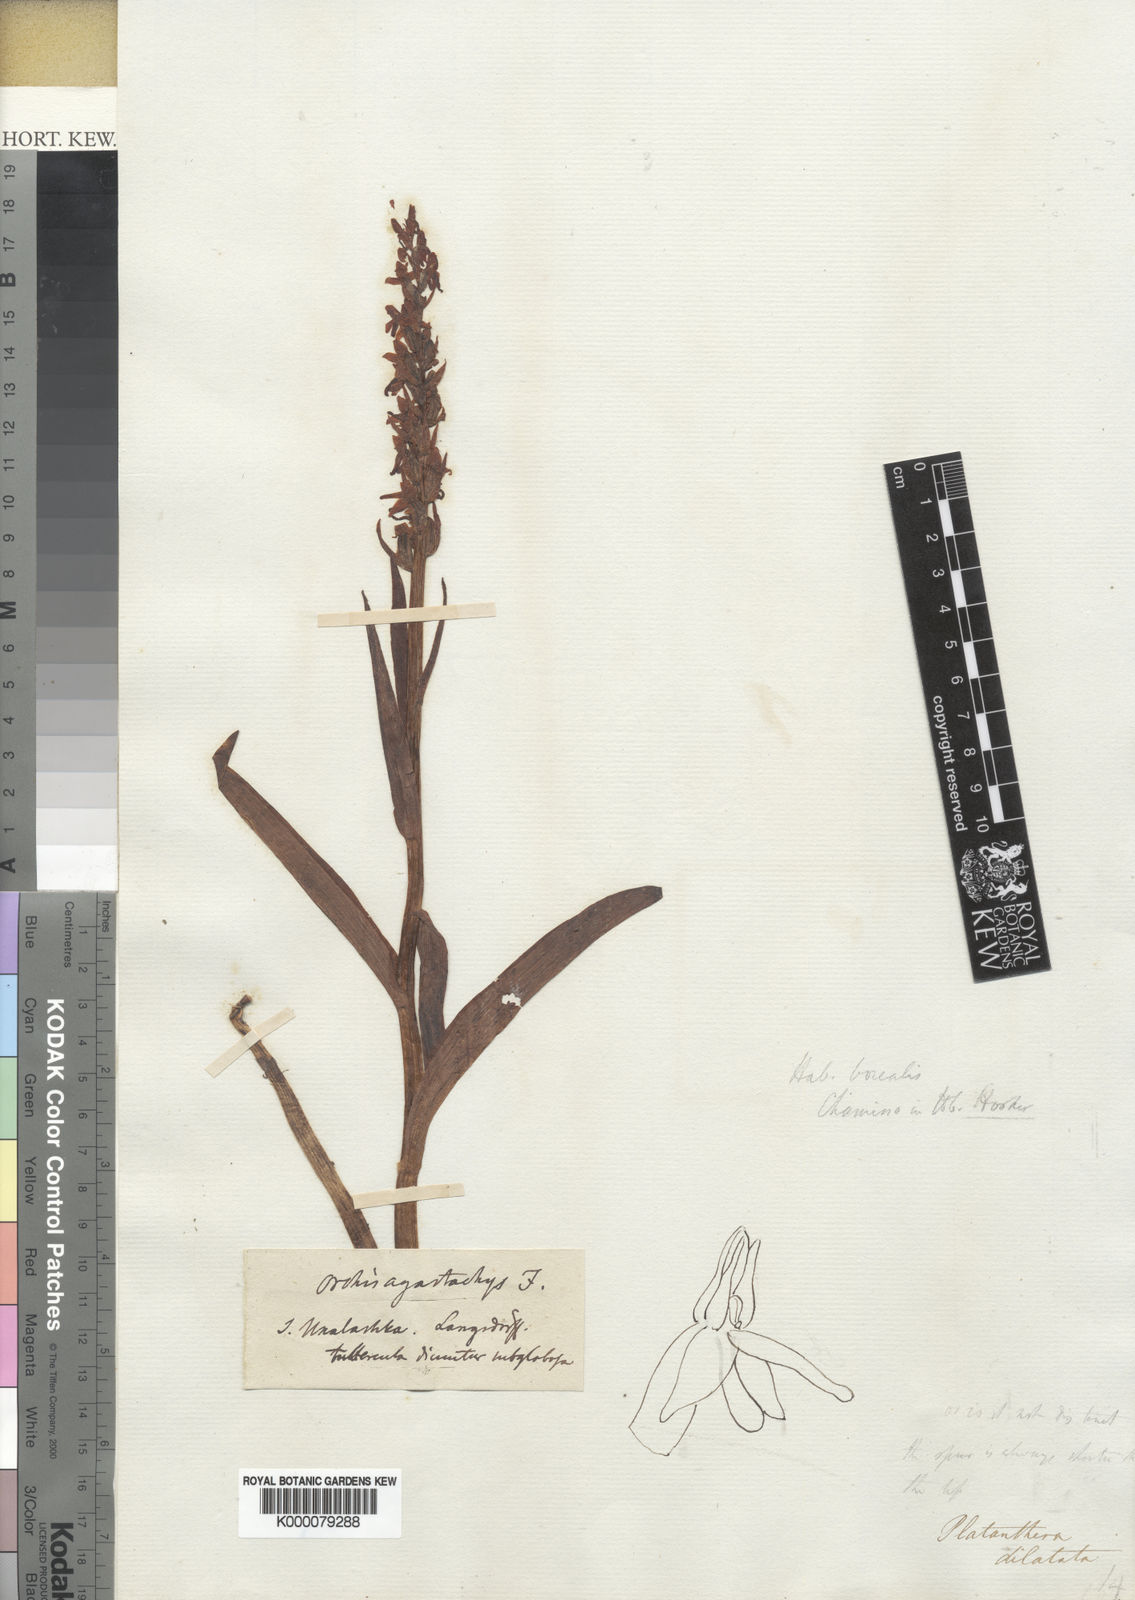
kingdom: Plantae
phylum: Tracheophyta
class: Liliopsida
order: Asparagales
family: Orchidaceae
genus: Platanthera
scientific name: Platanthera dilatata
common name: Bog candles
